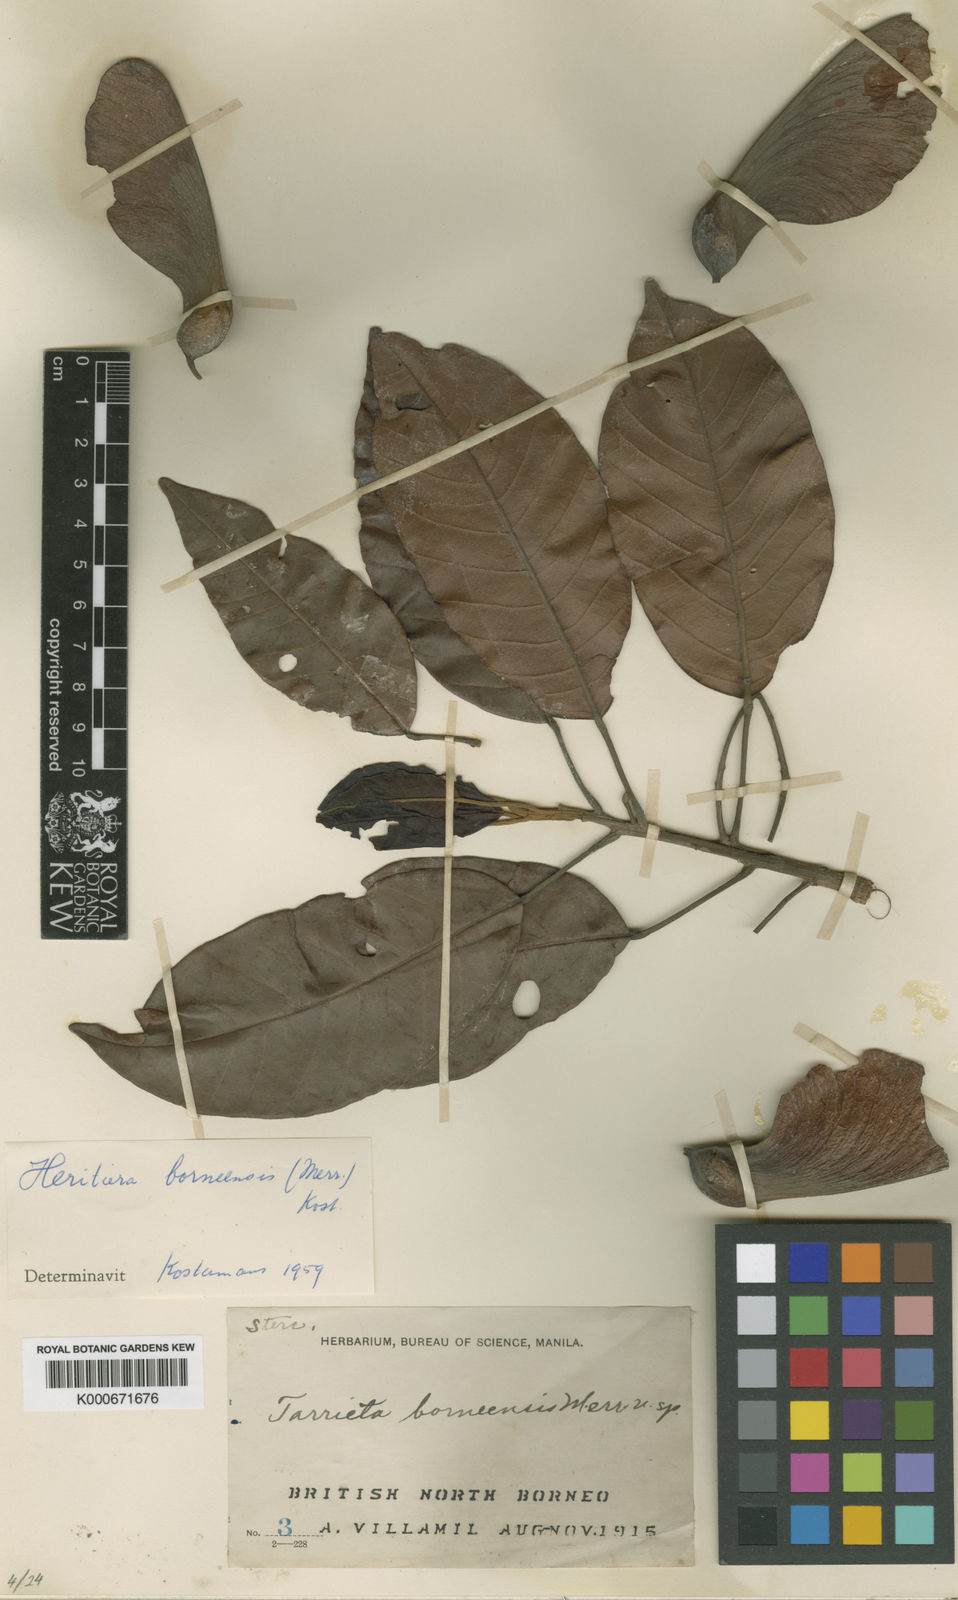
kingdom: Plantae
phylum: Tracheophyta
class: Magnoliopsida
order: Malvales
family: Malvaceae
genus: Heritiera
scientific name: Heritiera borneensis
